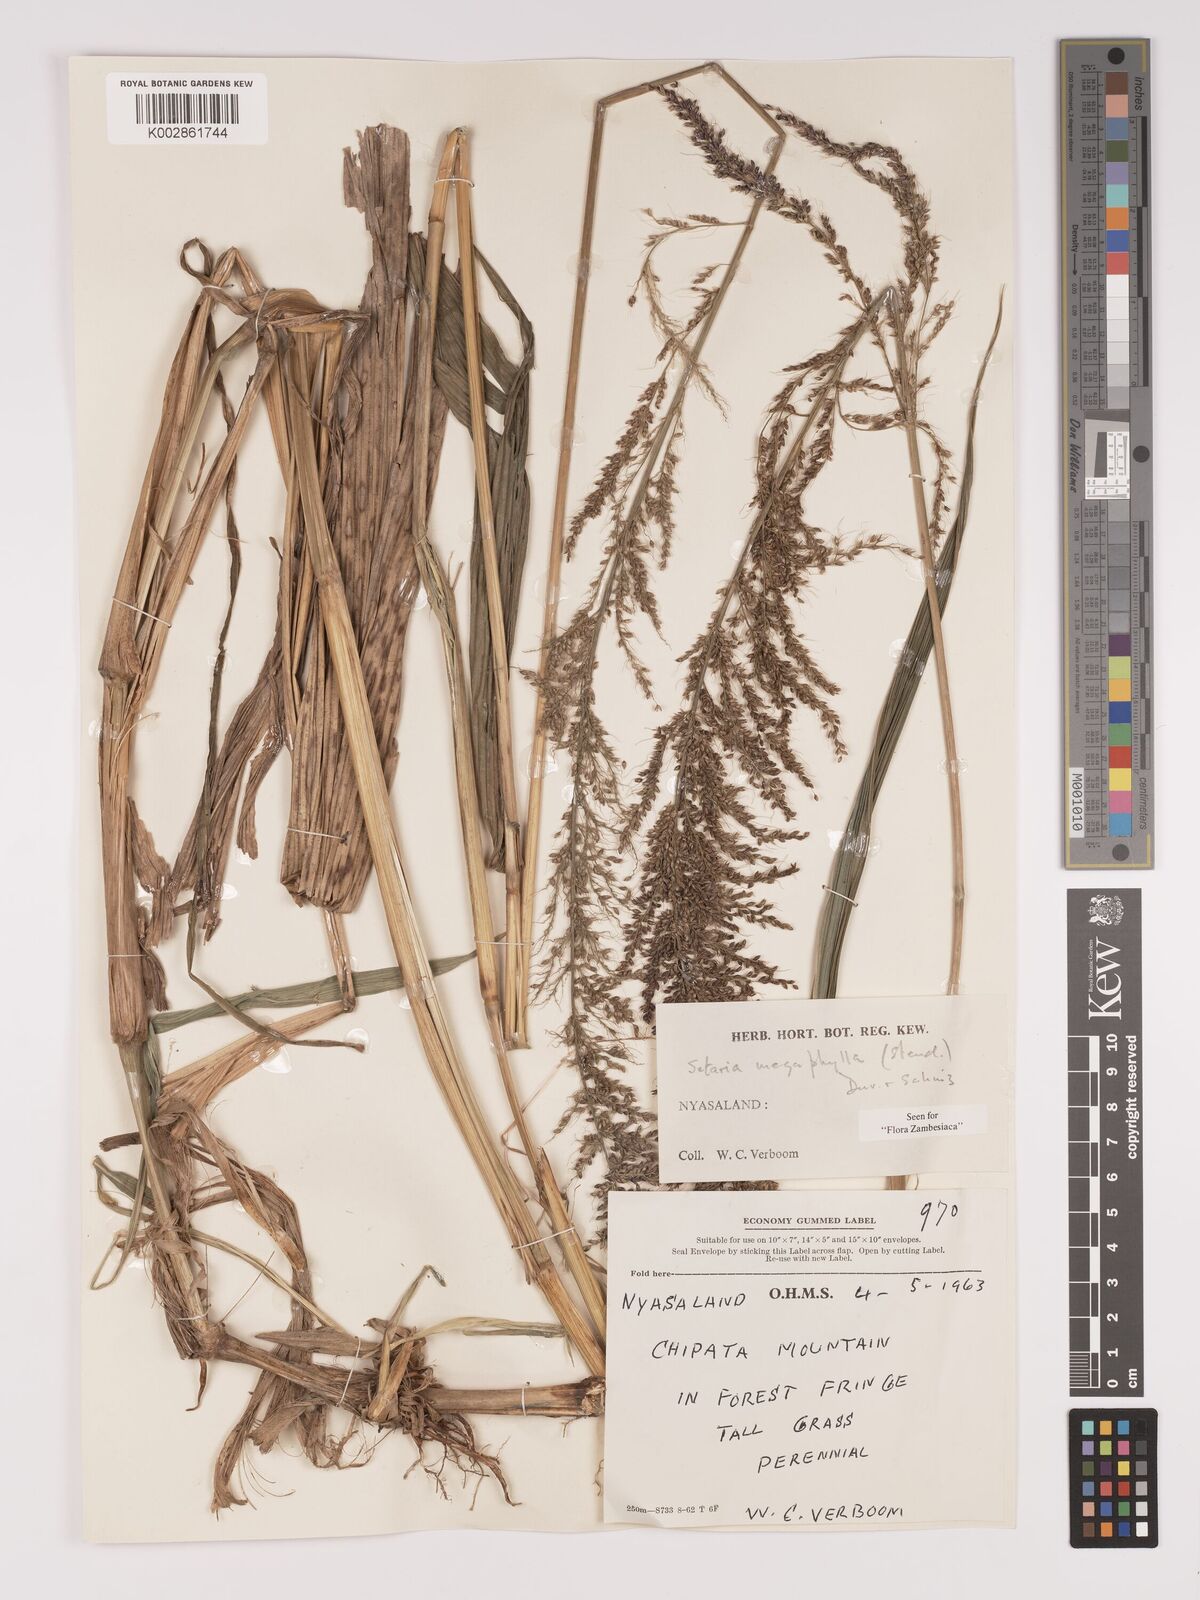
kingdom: Plantae
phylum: Tracheophyta
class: Liliopsida
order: Poales
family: Poaceae
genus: Setaria
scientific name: Setaria megaphylla
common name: Bigleaf bristlegrass
